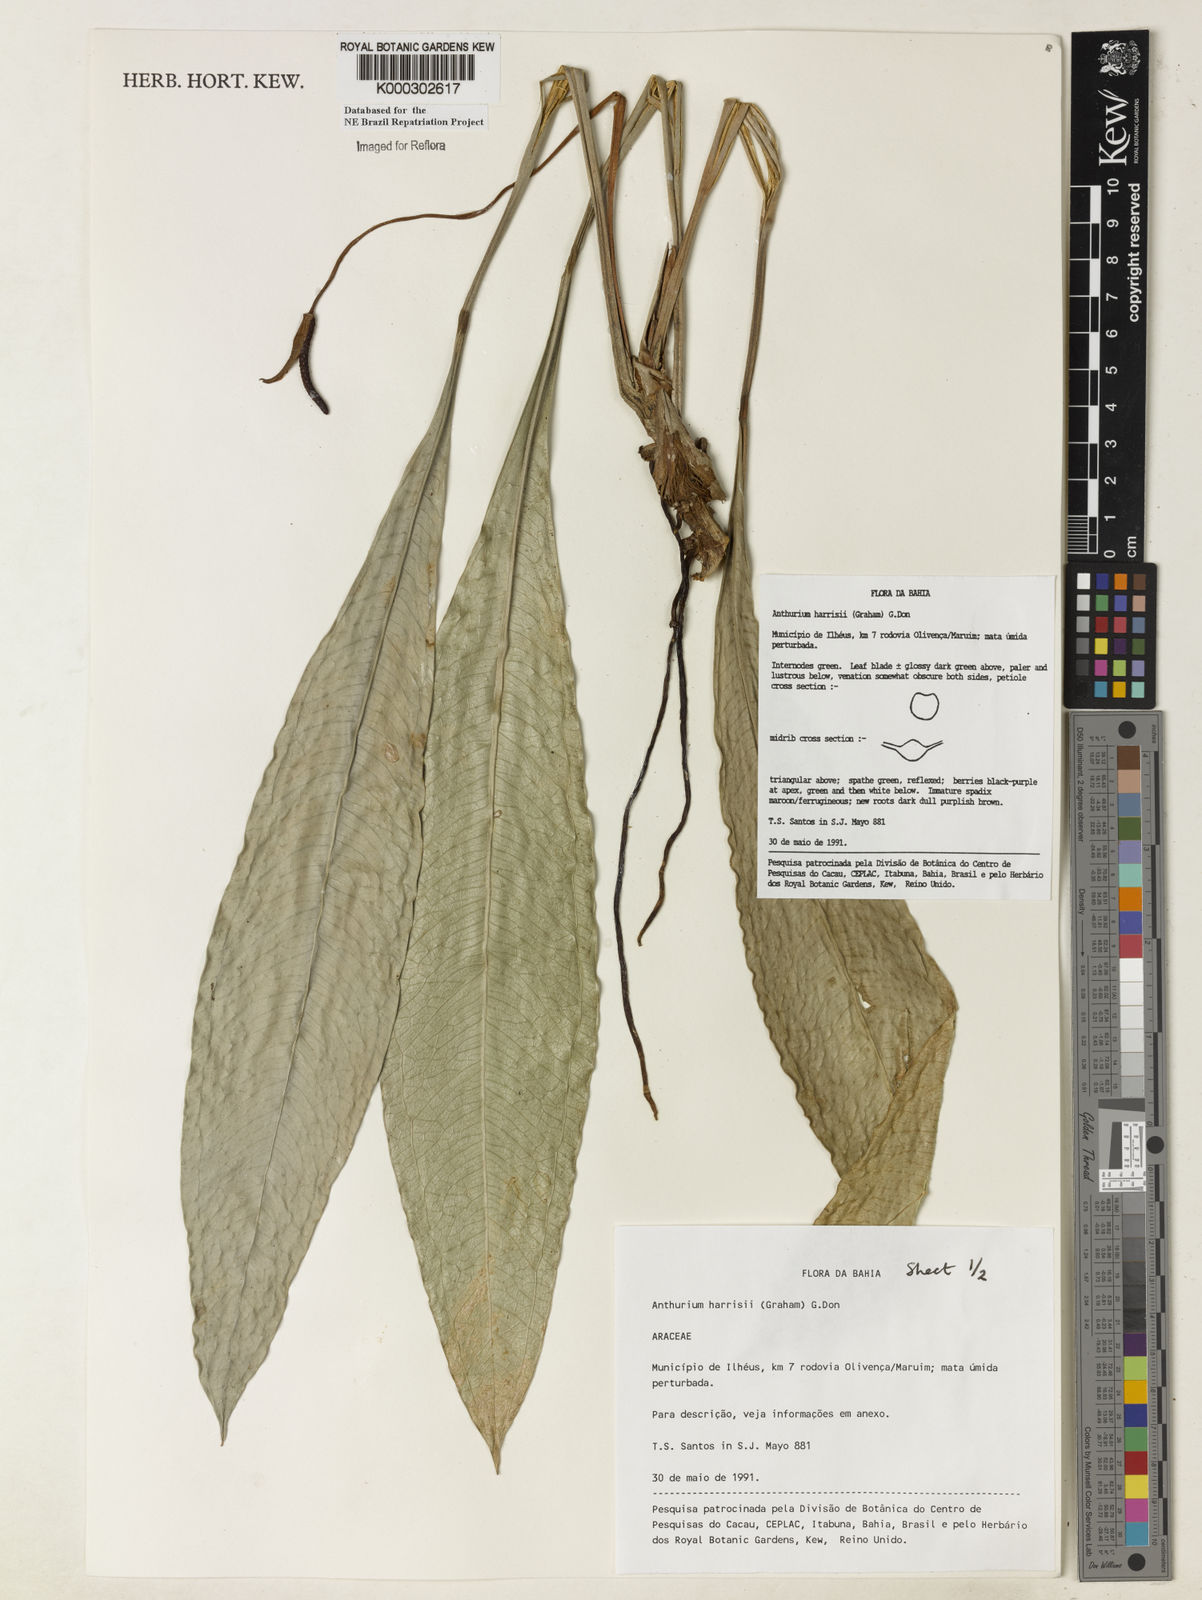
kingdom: Plantae
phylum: Tracheophyta
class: Liliopsida
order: Alismatales
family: Araceae
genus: Anthurium
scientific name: Anthurium harrisii
